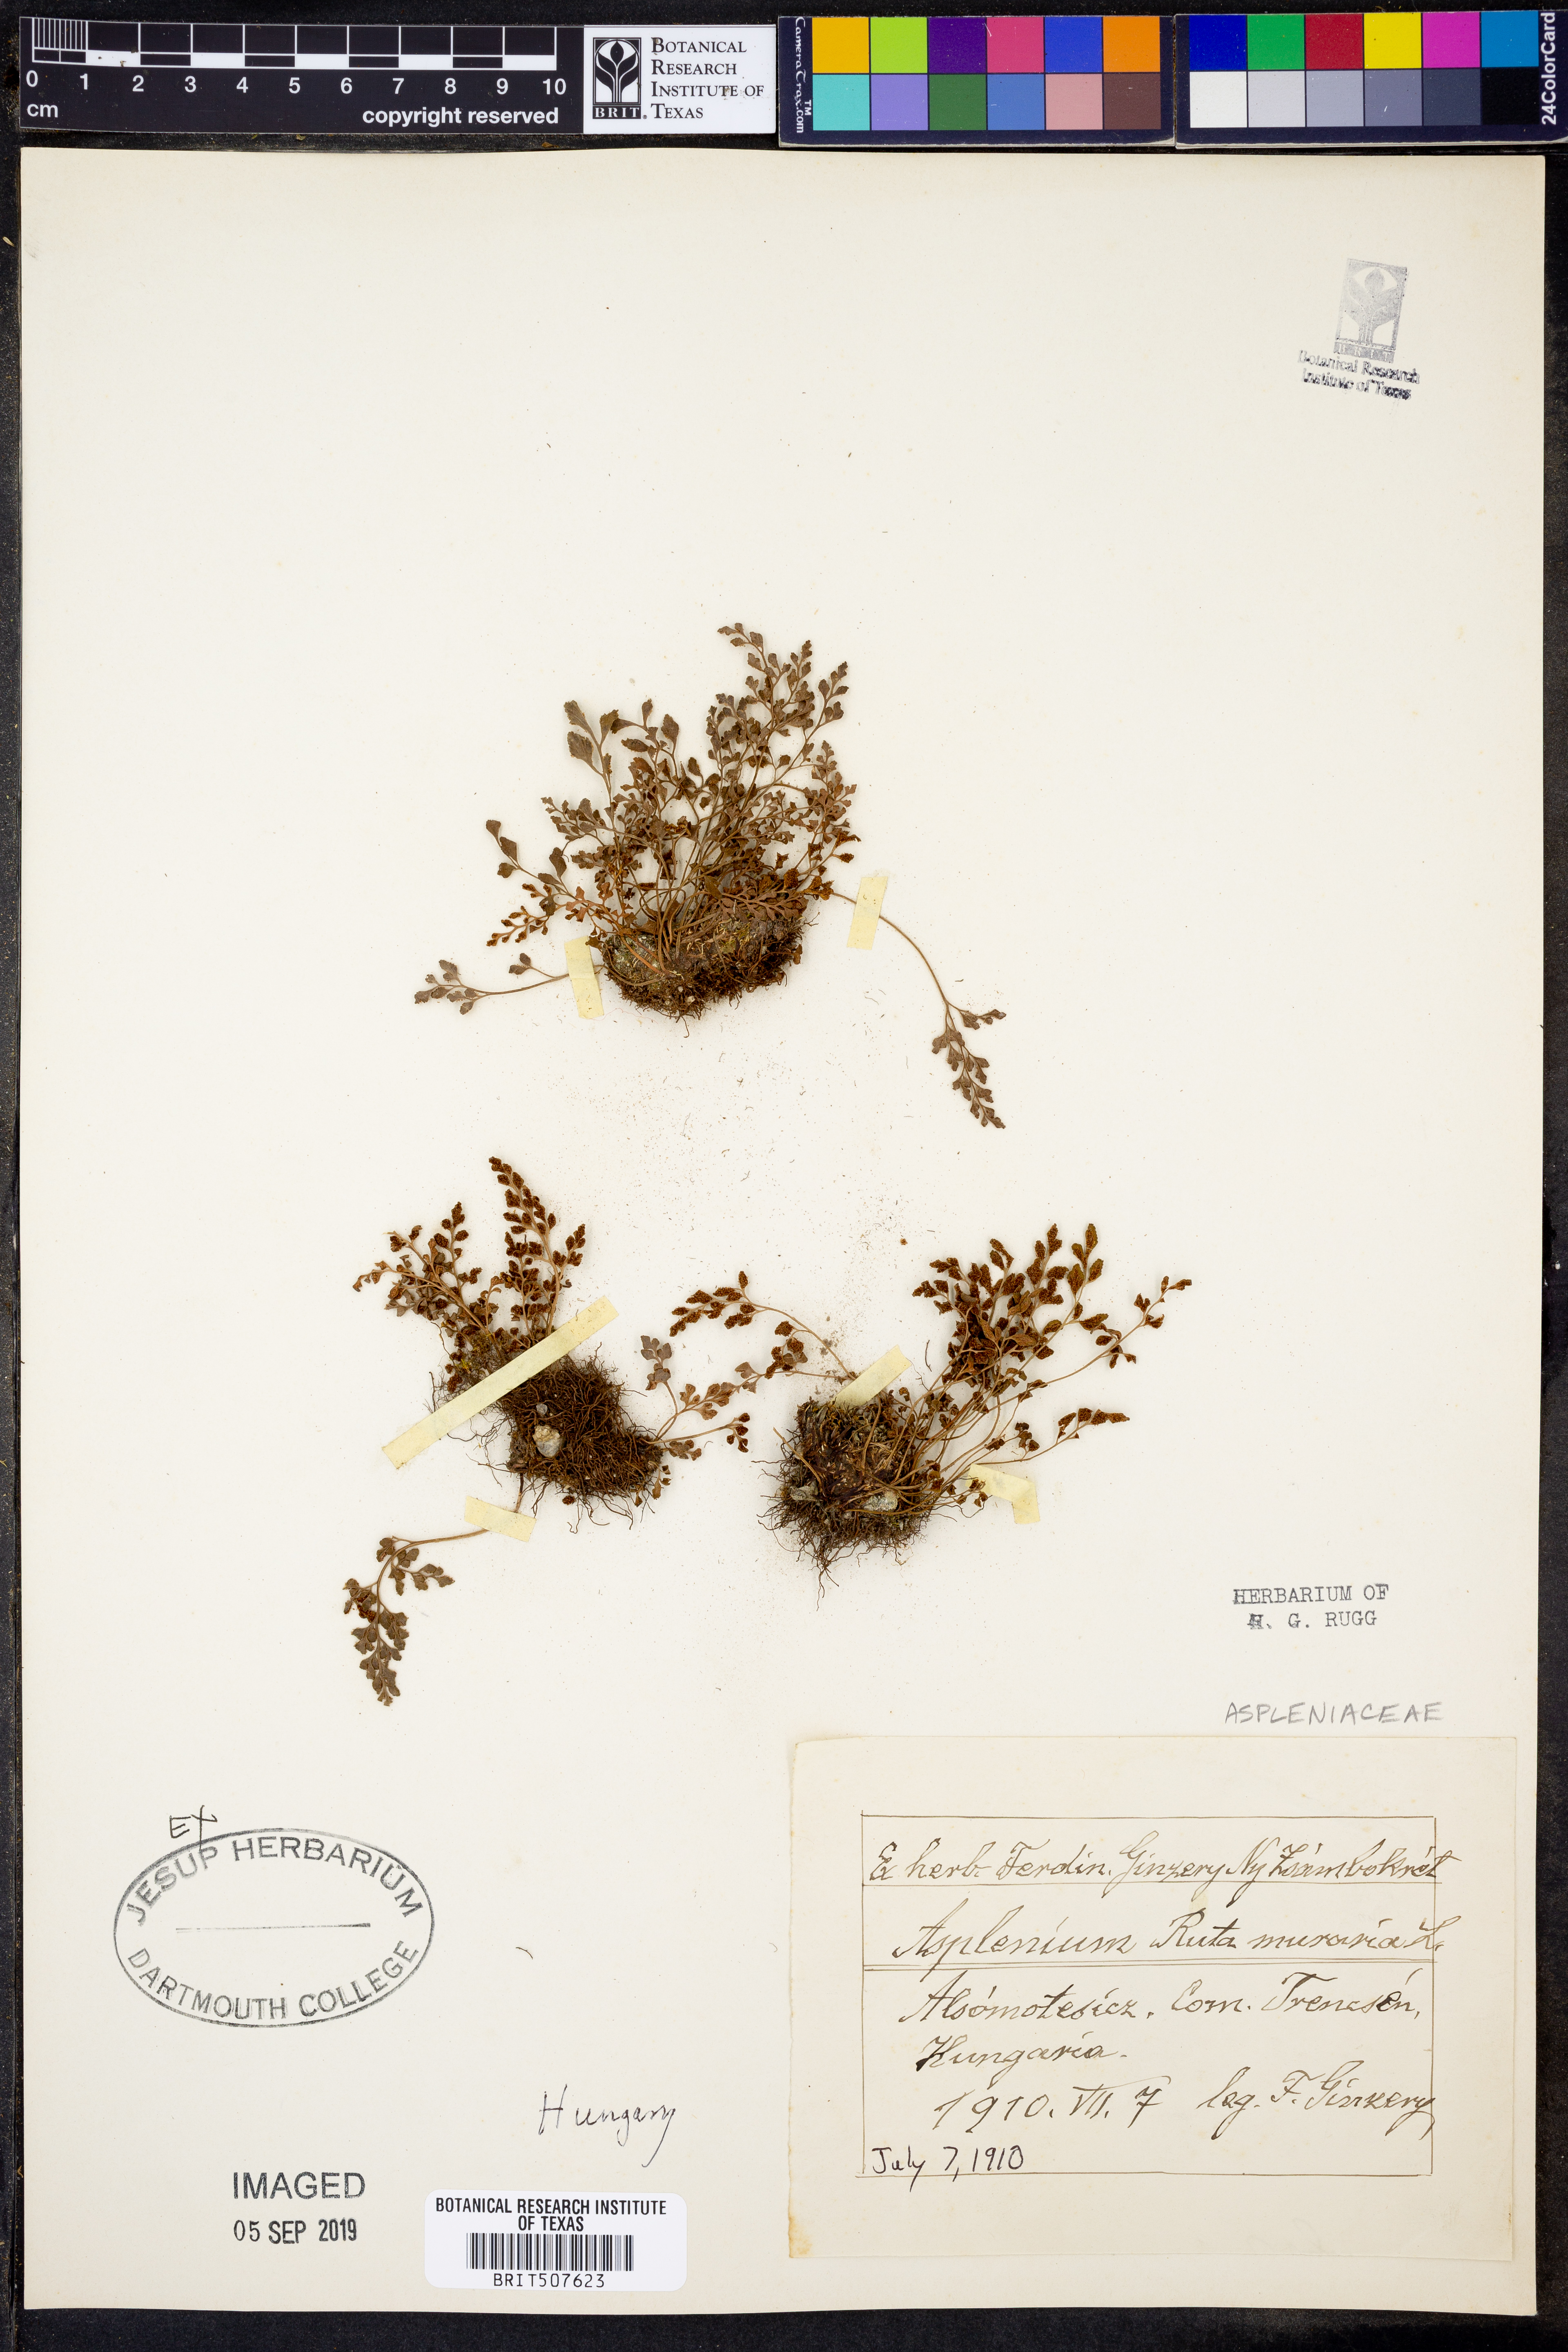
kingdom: Plantae
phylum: Tracheophyta
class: Polypodiopsida
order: Polypodiales
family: Aspleniaceae
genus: Asplenium
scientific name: Asplenium ruta-muraria
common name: Wall-rue
